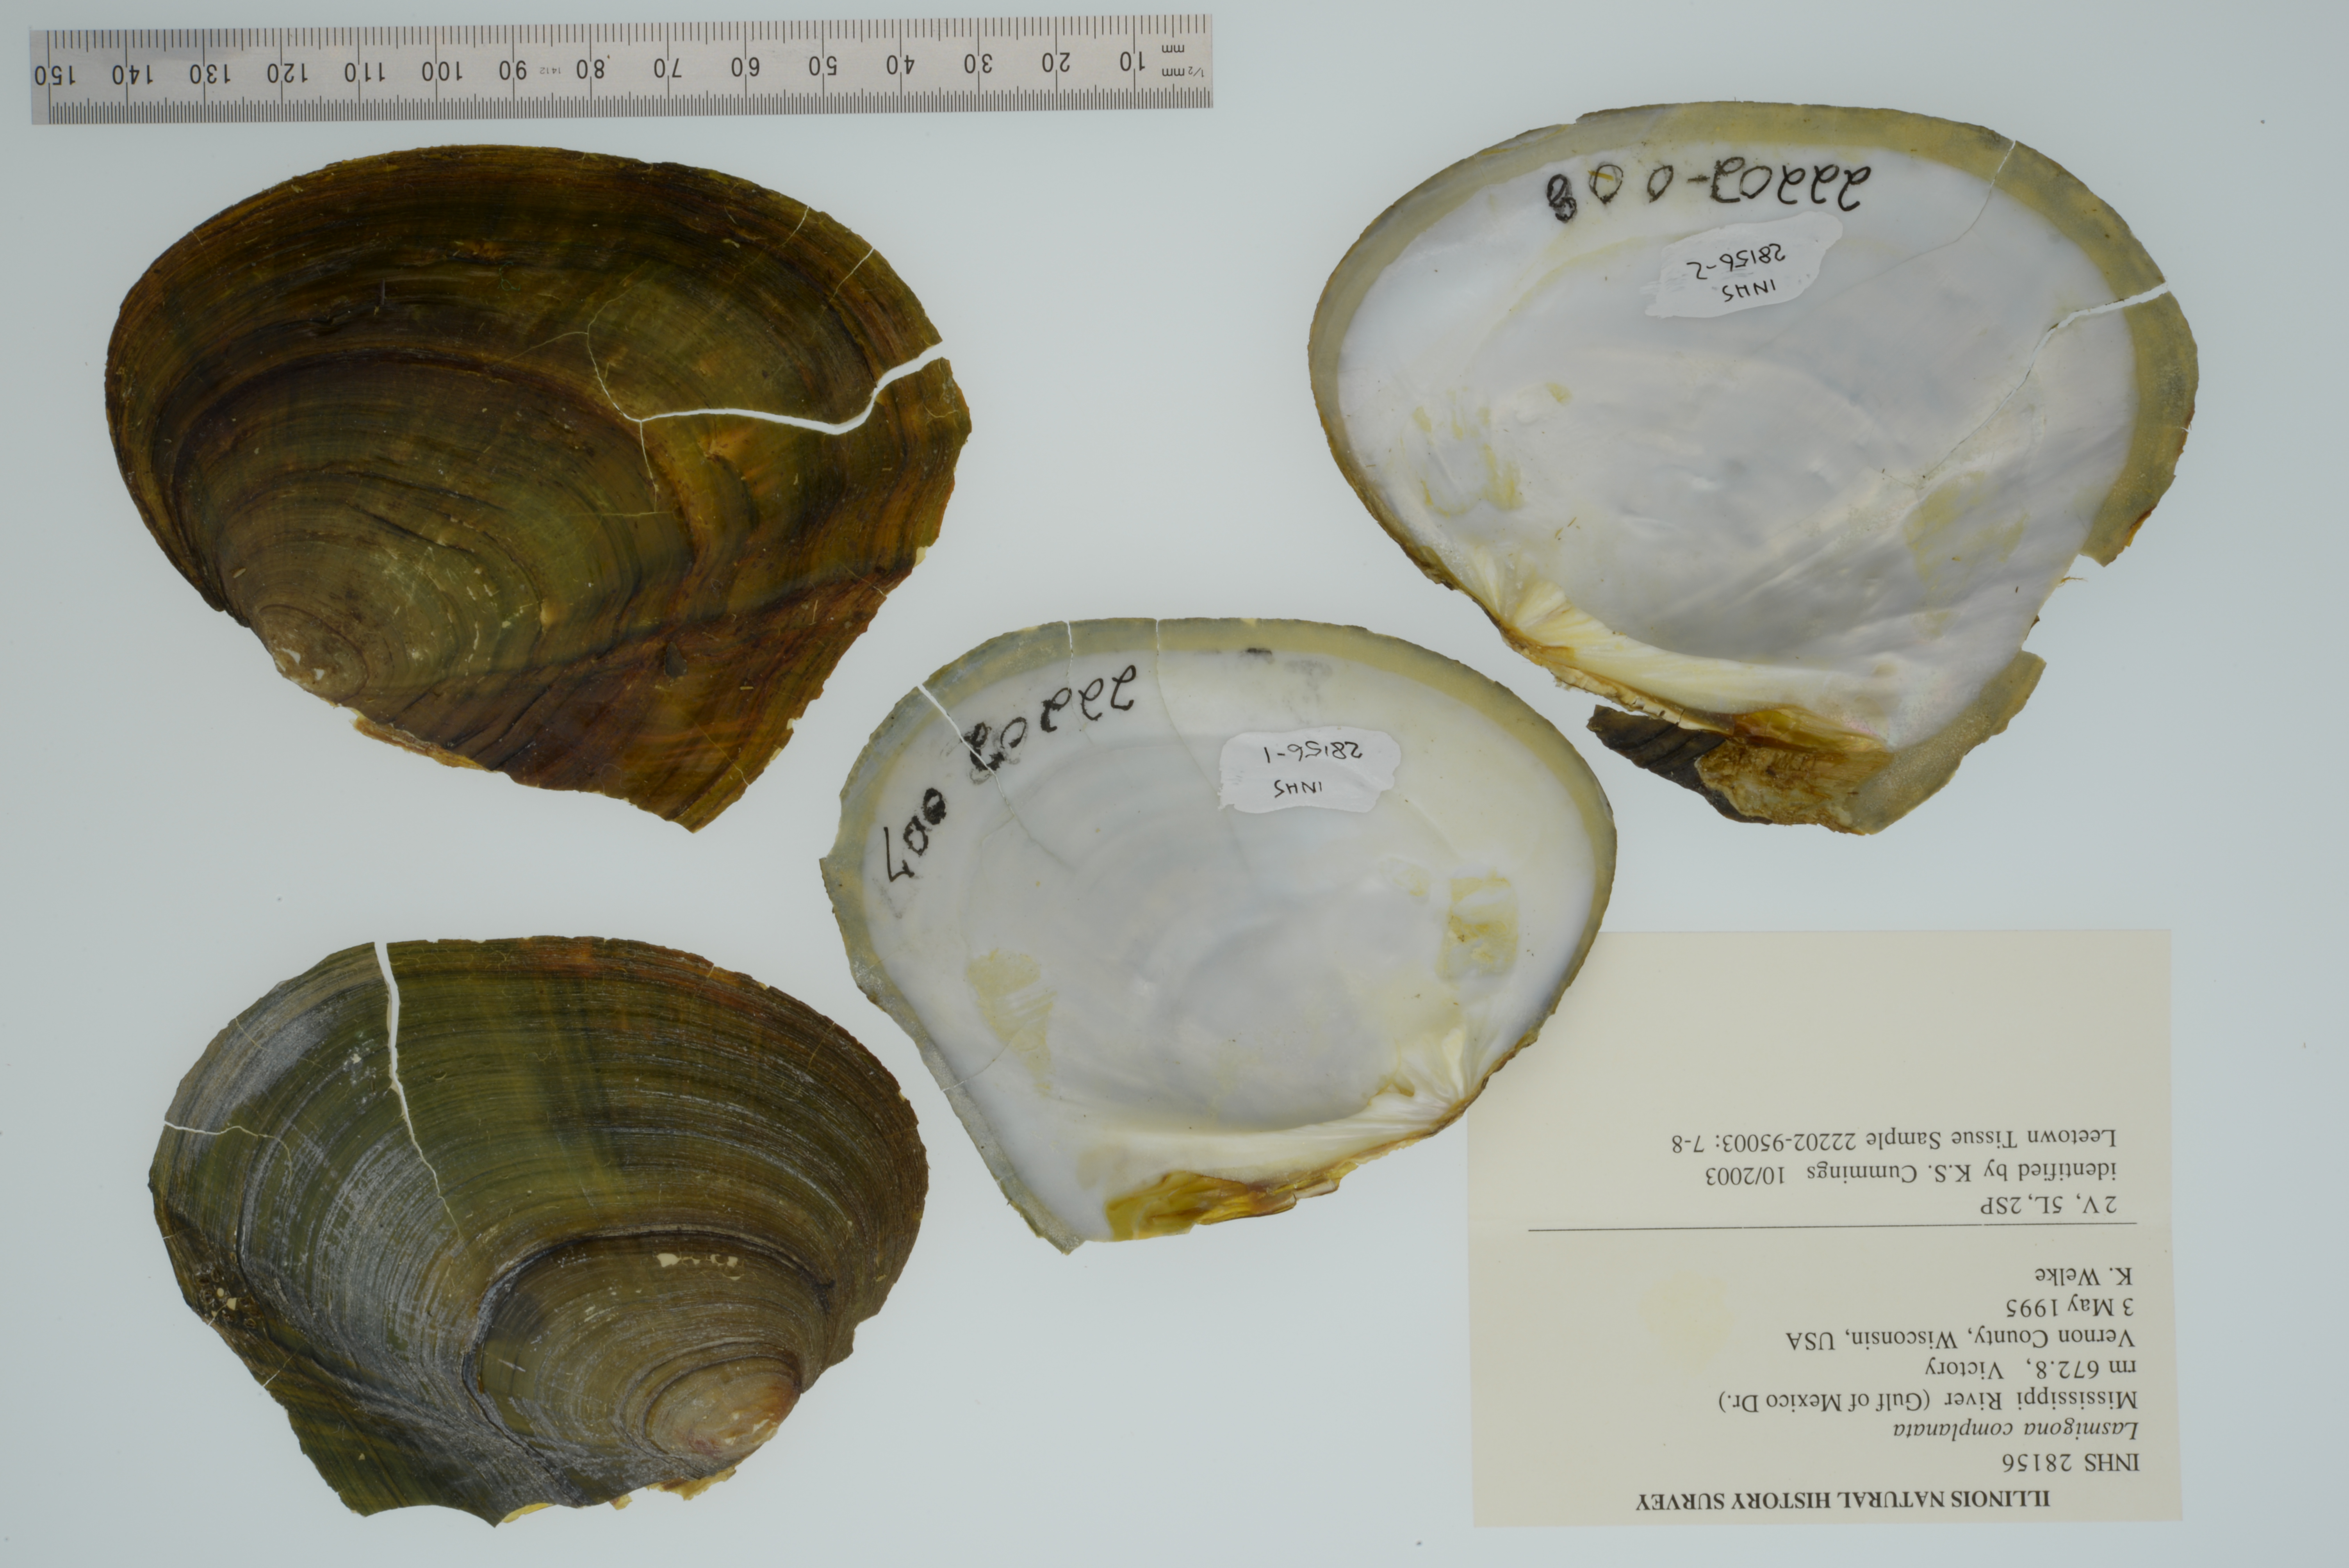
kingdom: Animalia
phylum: Mollusca
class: Bivalvia
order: Unionida
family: Unionidae
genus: Lasmigona
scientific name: Lasmigona complanata
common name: White heelsplitter
